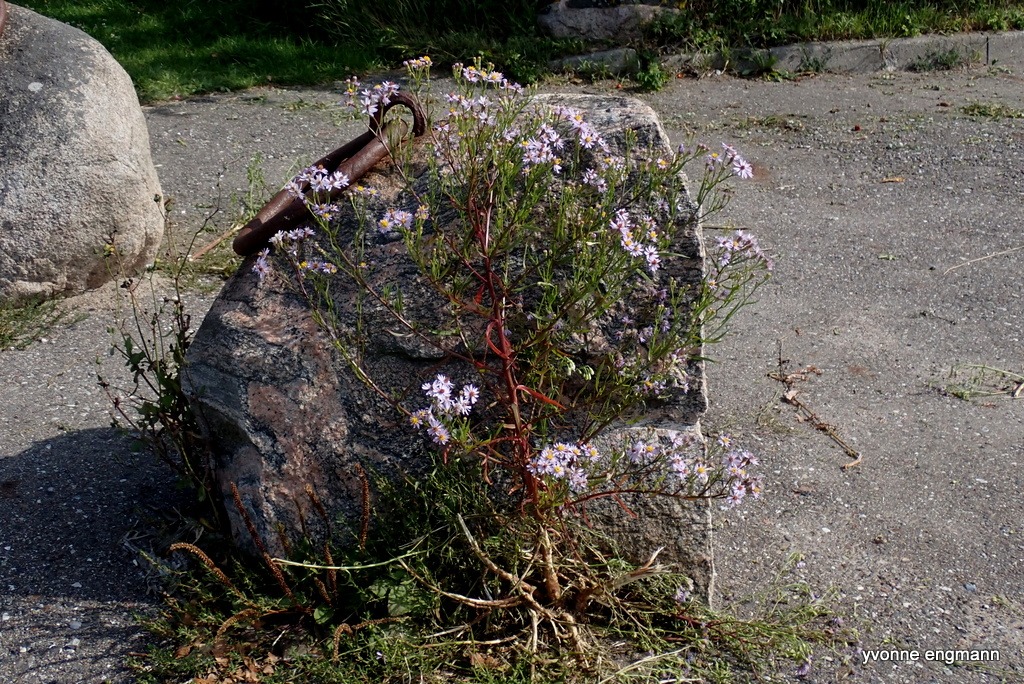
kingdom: Plantae
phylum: Tracheophyta
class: Magnoliopsida
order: Asterales
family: Asteraceae
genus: Tripolium
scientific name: Tripolium pannonicum
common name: Strandasters
